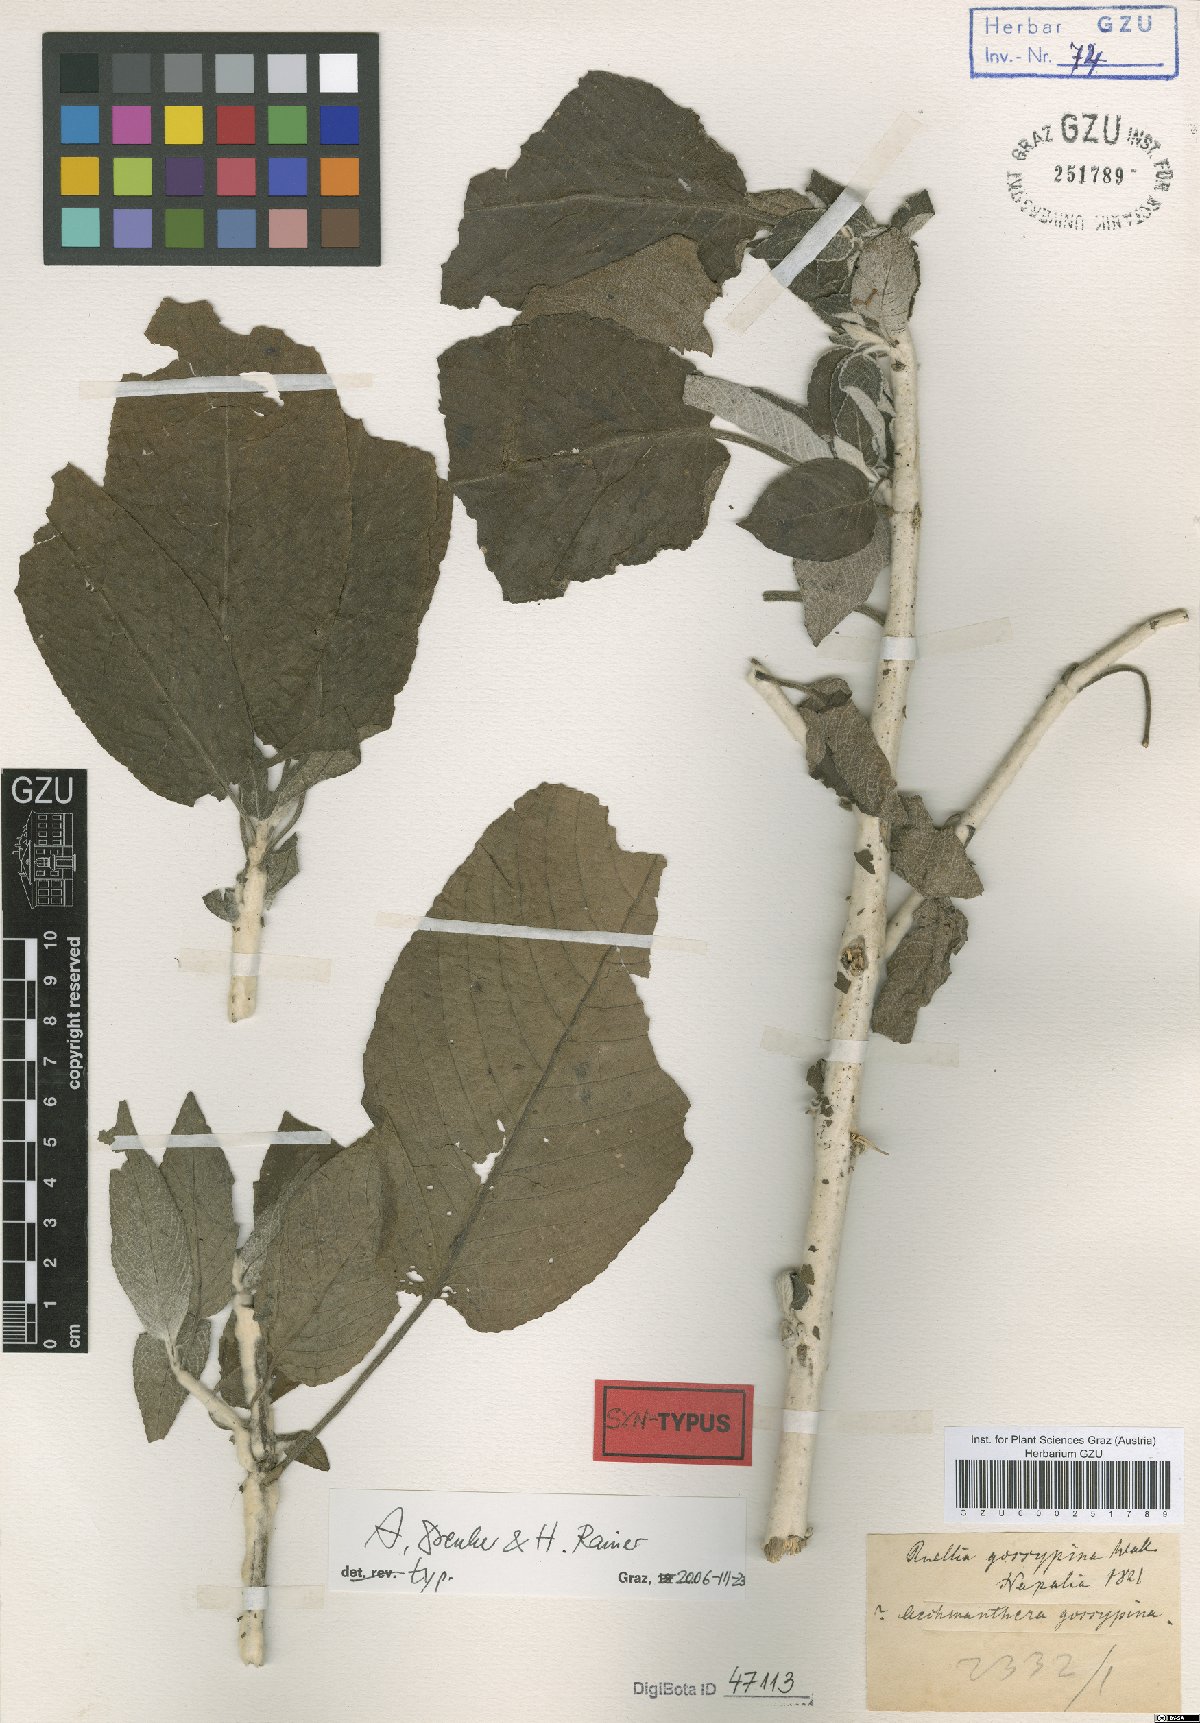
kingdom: Plantae
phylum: Tracheophyta
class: Magnoliopsida
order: Lamiales
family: Acanthaceae
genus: Strobilanthes
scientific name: Strobilanthes tomentosa
